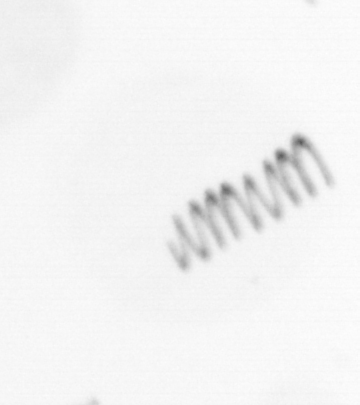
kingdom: Chromista
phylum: Ochrophyta
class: Bacillariophyceae
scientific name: Bacillariophyceae
